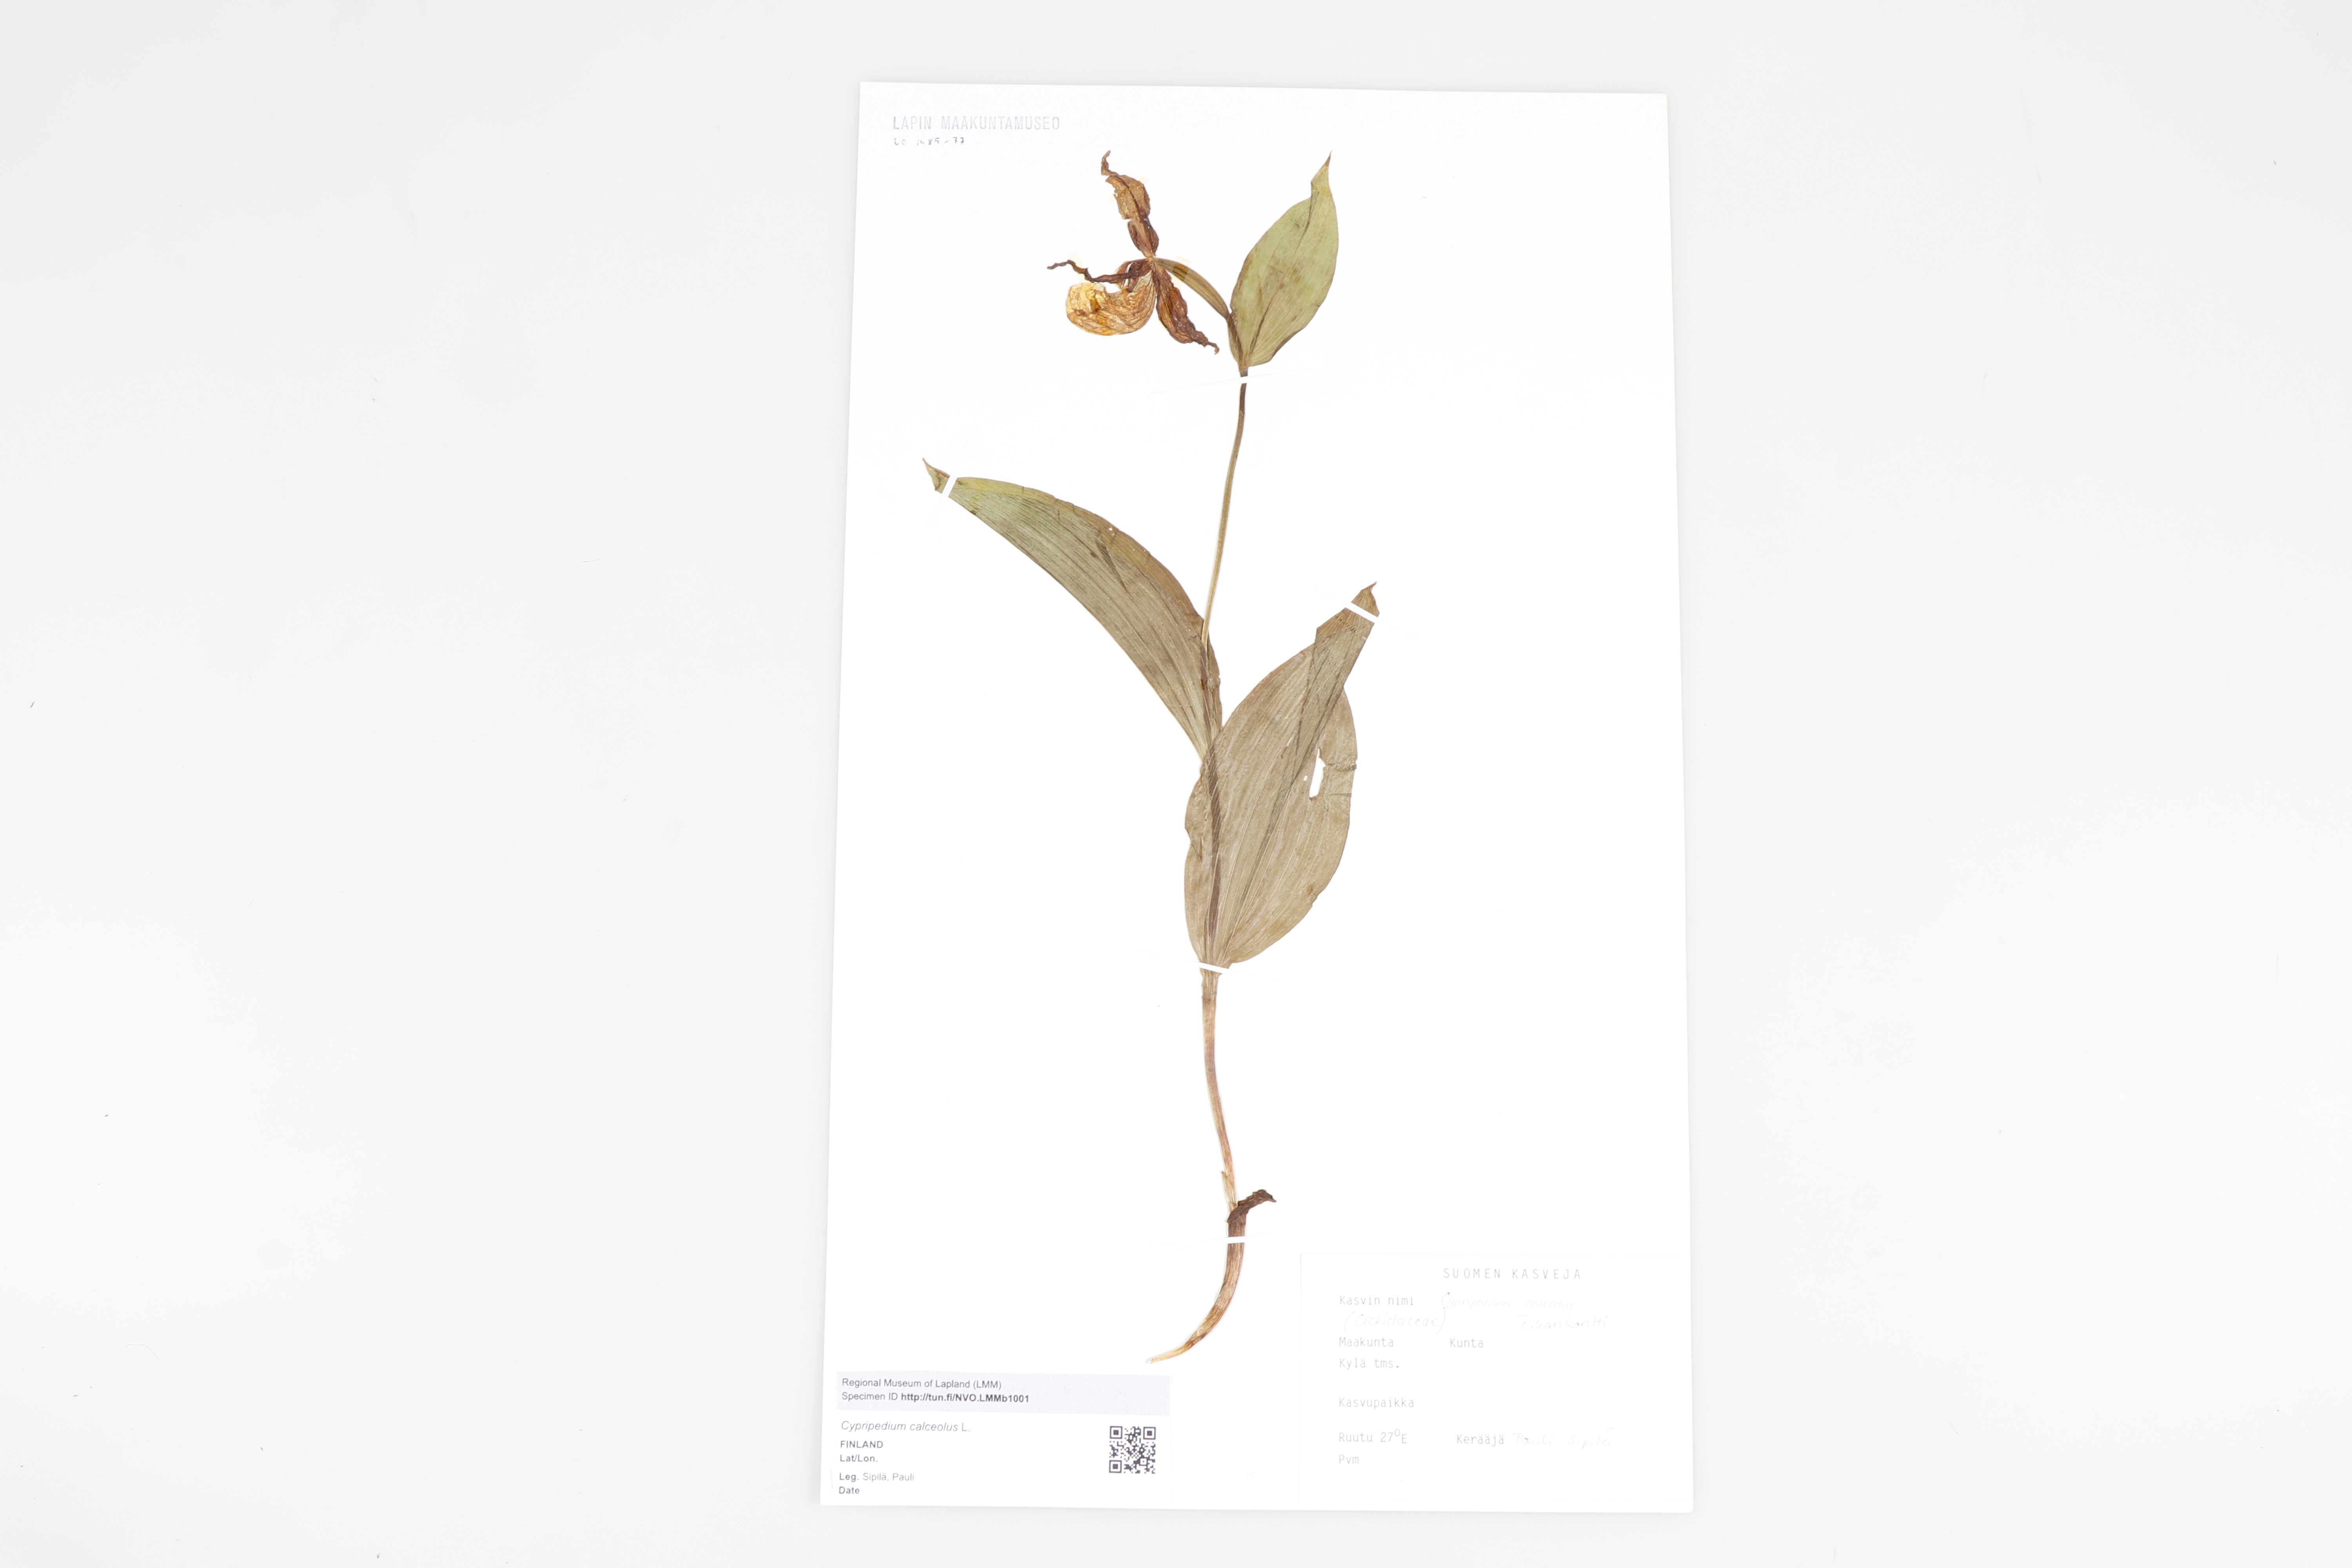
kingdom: Plantae
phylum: Tracheophyta
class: Liliopsida
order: Asparagales
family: Orchidaceae
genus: Cypripedium
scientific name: Cypripedium calceolus
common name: Lady's-slipper
